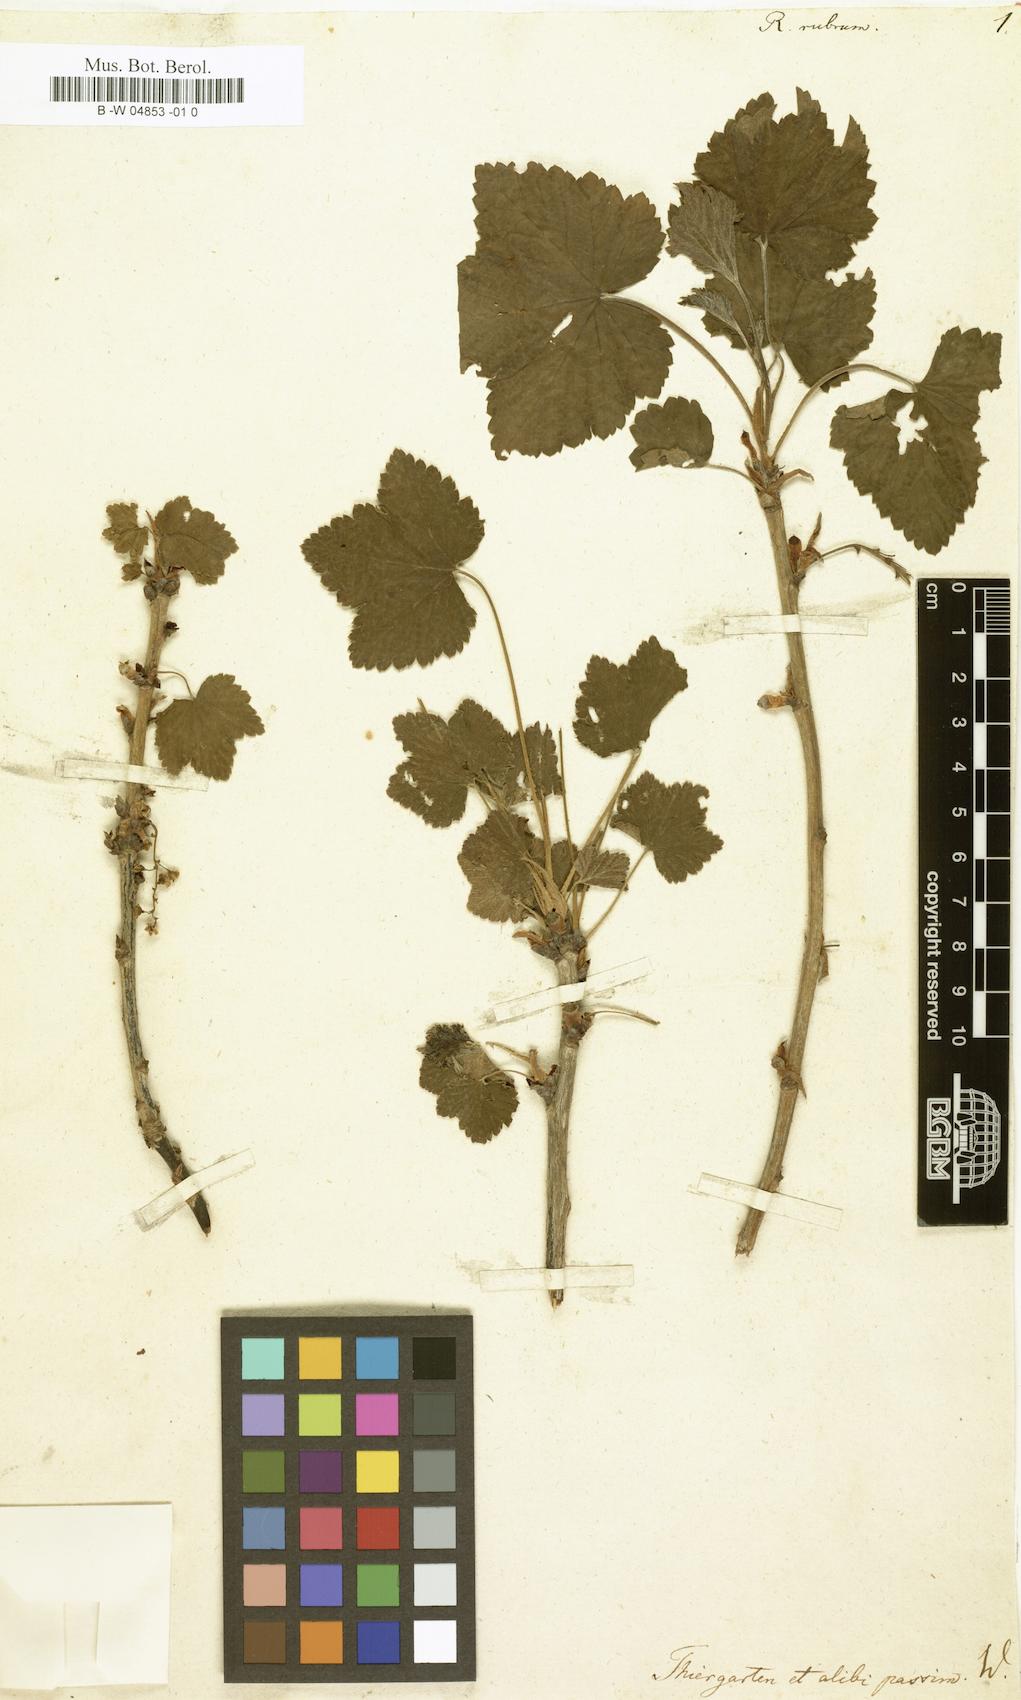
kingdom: Plantae
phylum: Tracheophyta
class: Magnoliopsida
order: Saxifragales
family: Grossulariaceae
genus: Ribes
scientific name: Ribes rubrum
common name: Red currant
